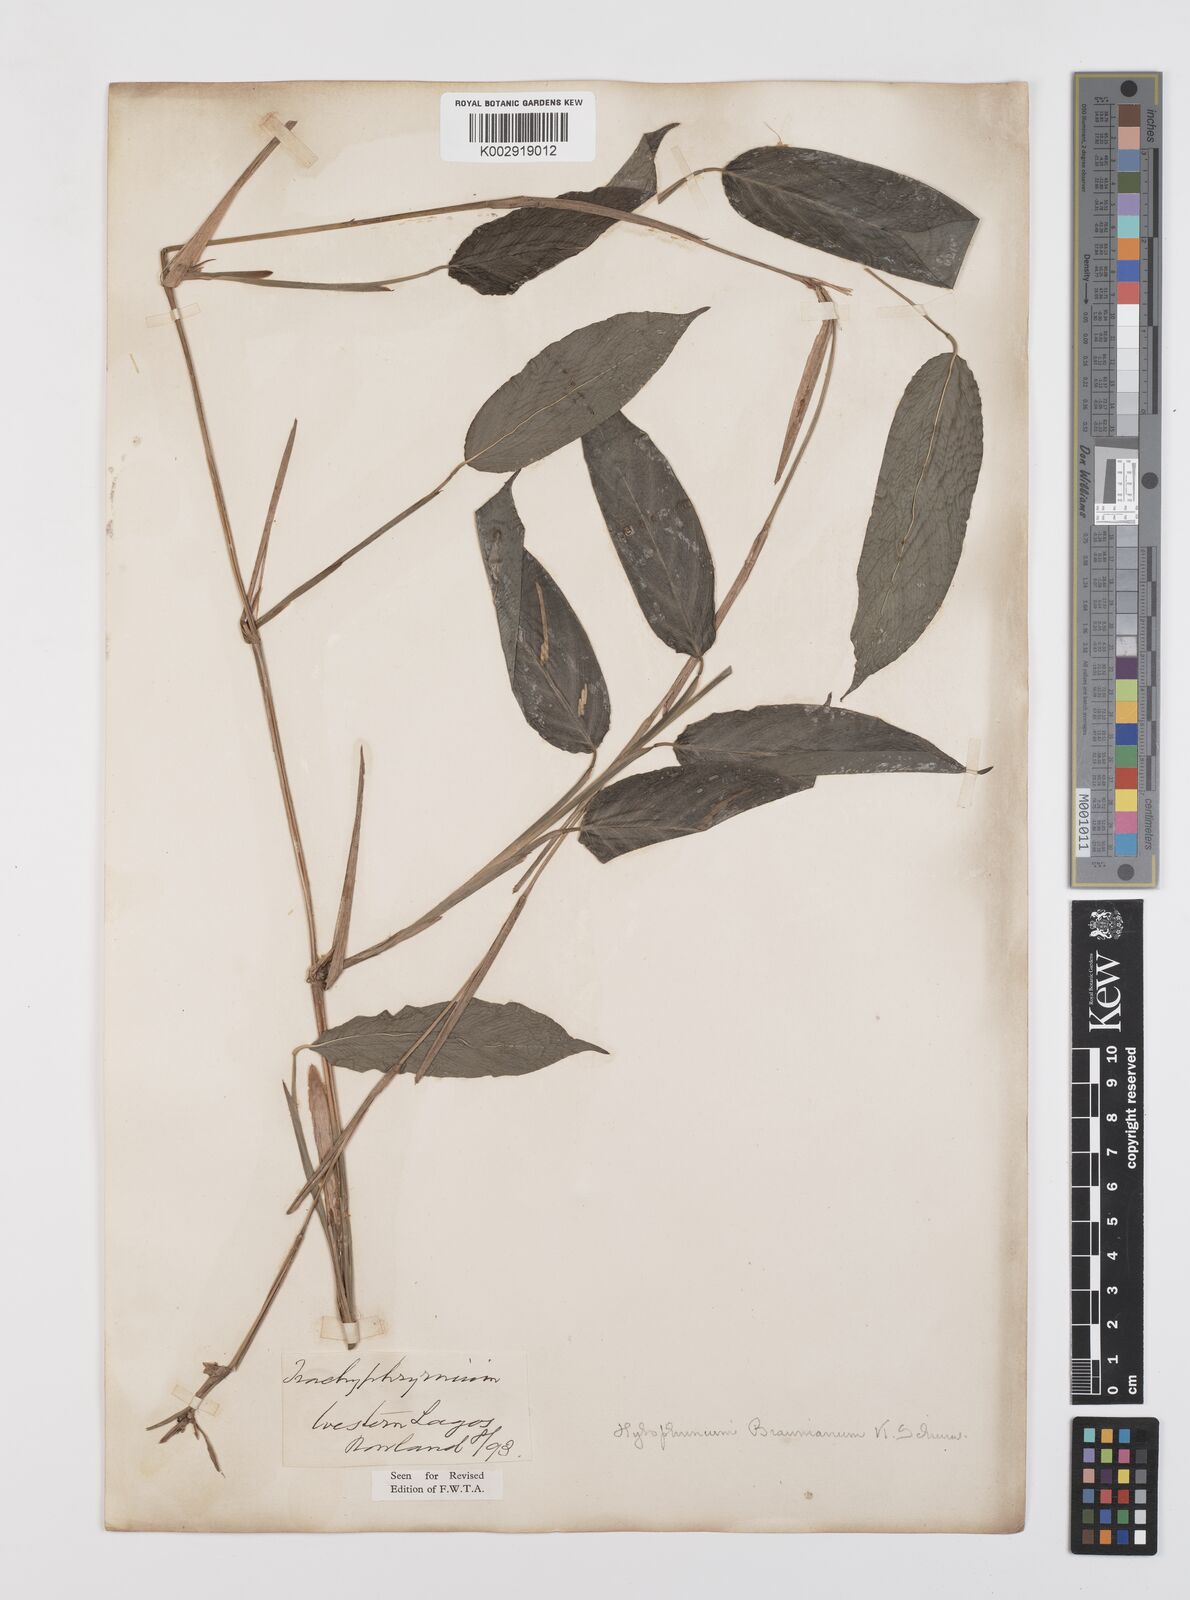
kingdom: Plantae
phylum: Tracheophyta
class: Liliopsida
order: Zingiberales
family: Marantaceae
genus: Trachyphrynium
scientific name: Trachyphrynium braunianum
